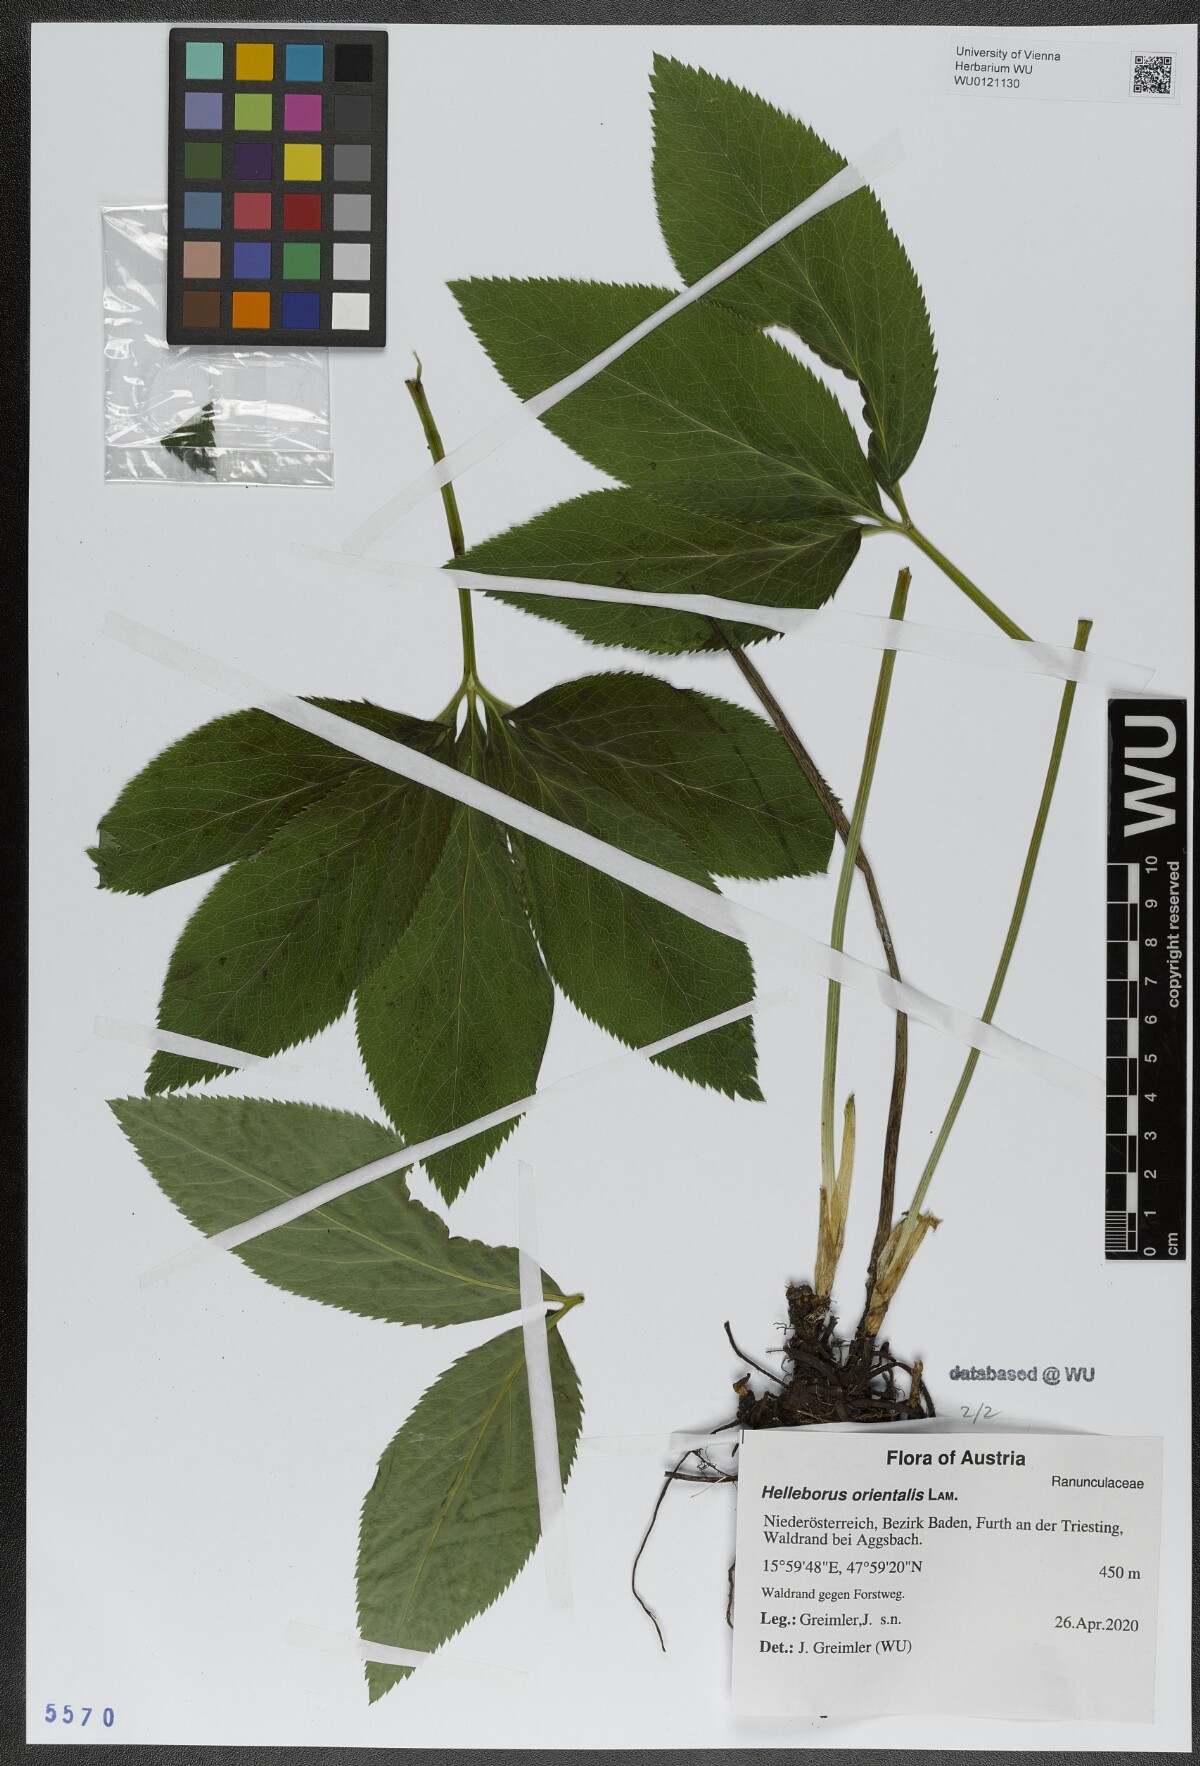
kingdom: Plantae
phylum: Tracheophyta
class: Magnoliopsida
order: Ranunculales
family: Ranunculaceae
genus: Helleborus
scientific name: Helleborus orientalis
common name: Lenten-rose
